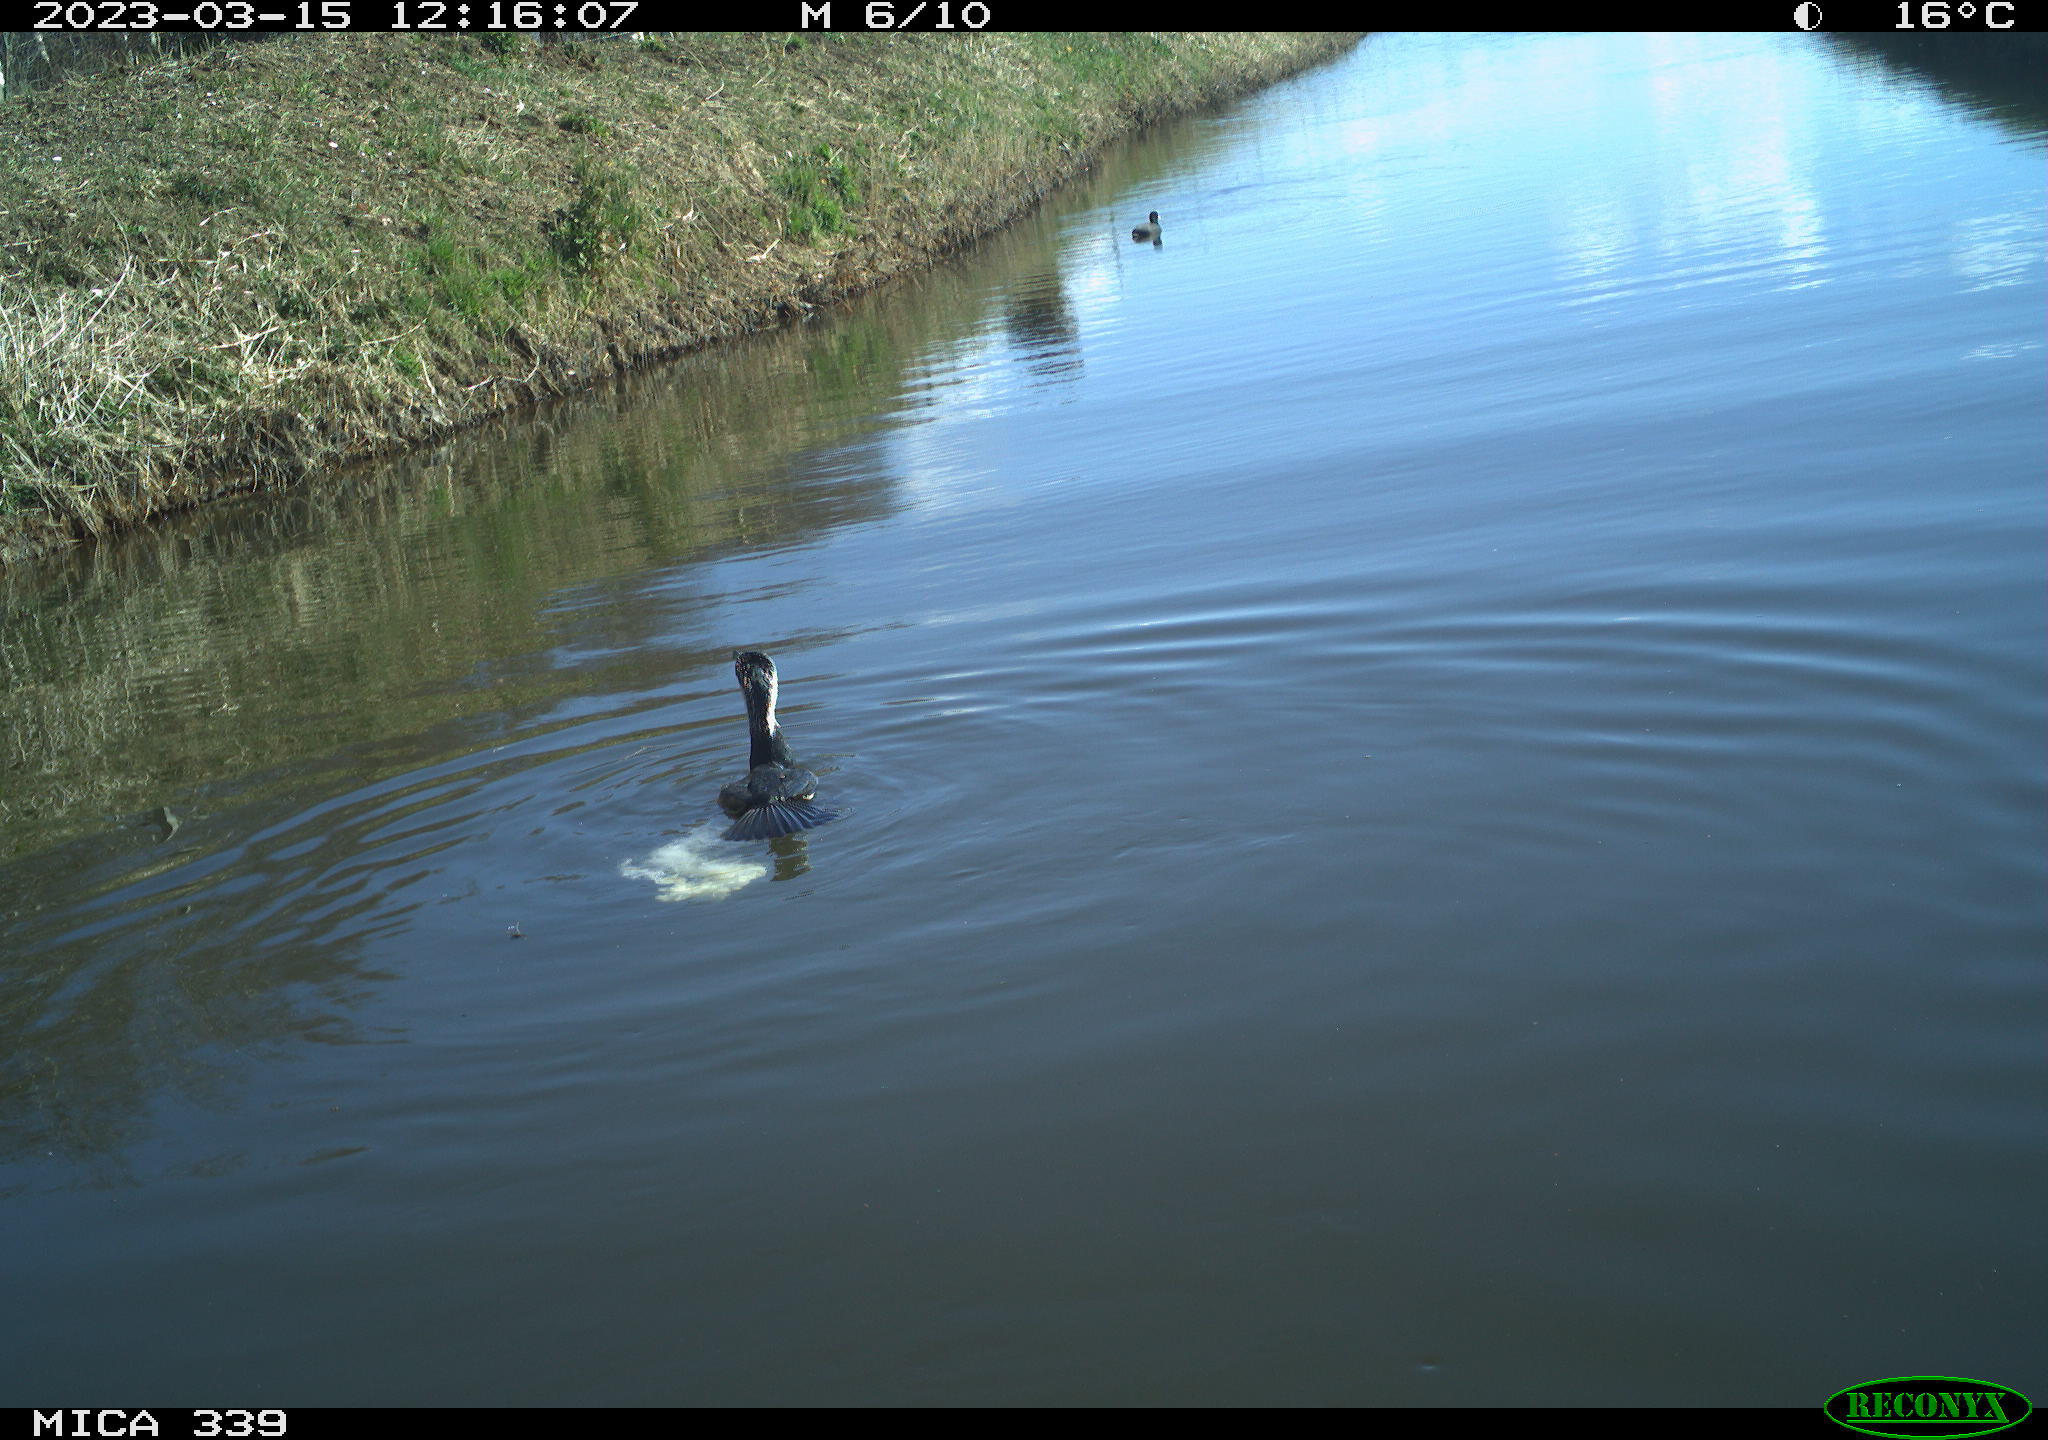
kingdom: Animalia
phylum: Chordata
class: Aves
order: Gruiformes
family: Rallidae
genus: Fulica
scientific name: Fulica atra
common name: Eurasian coot
